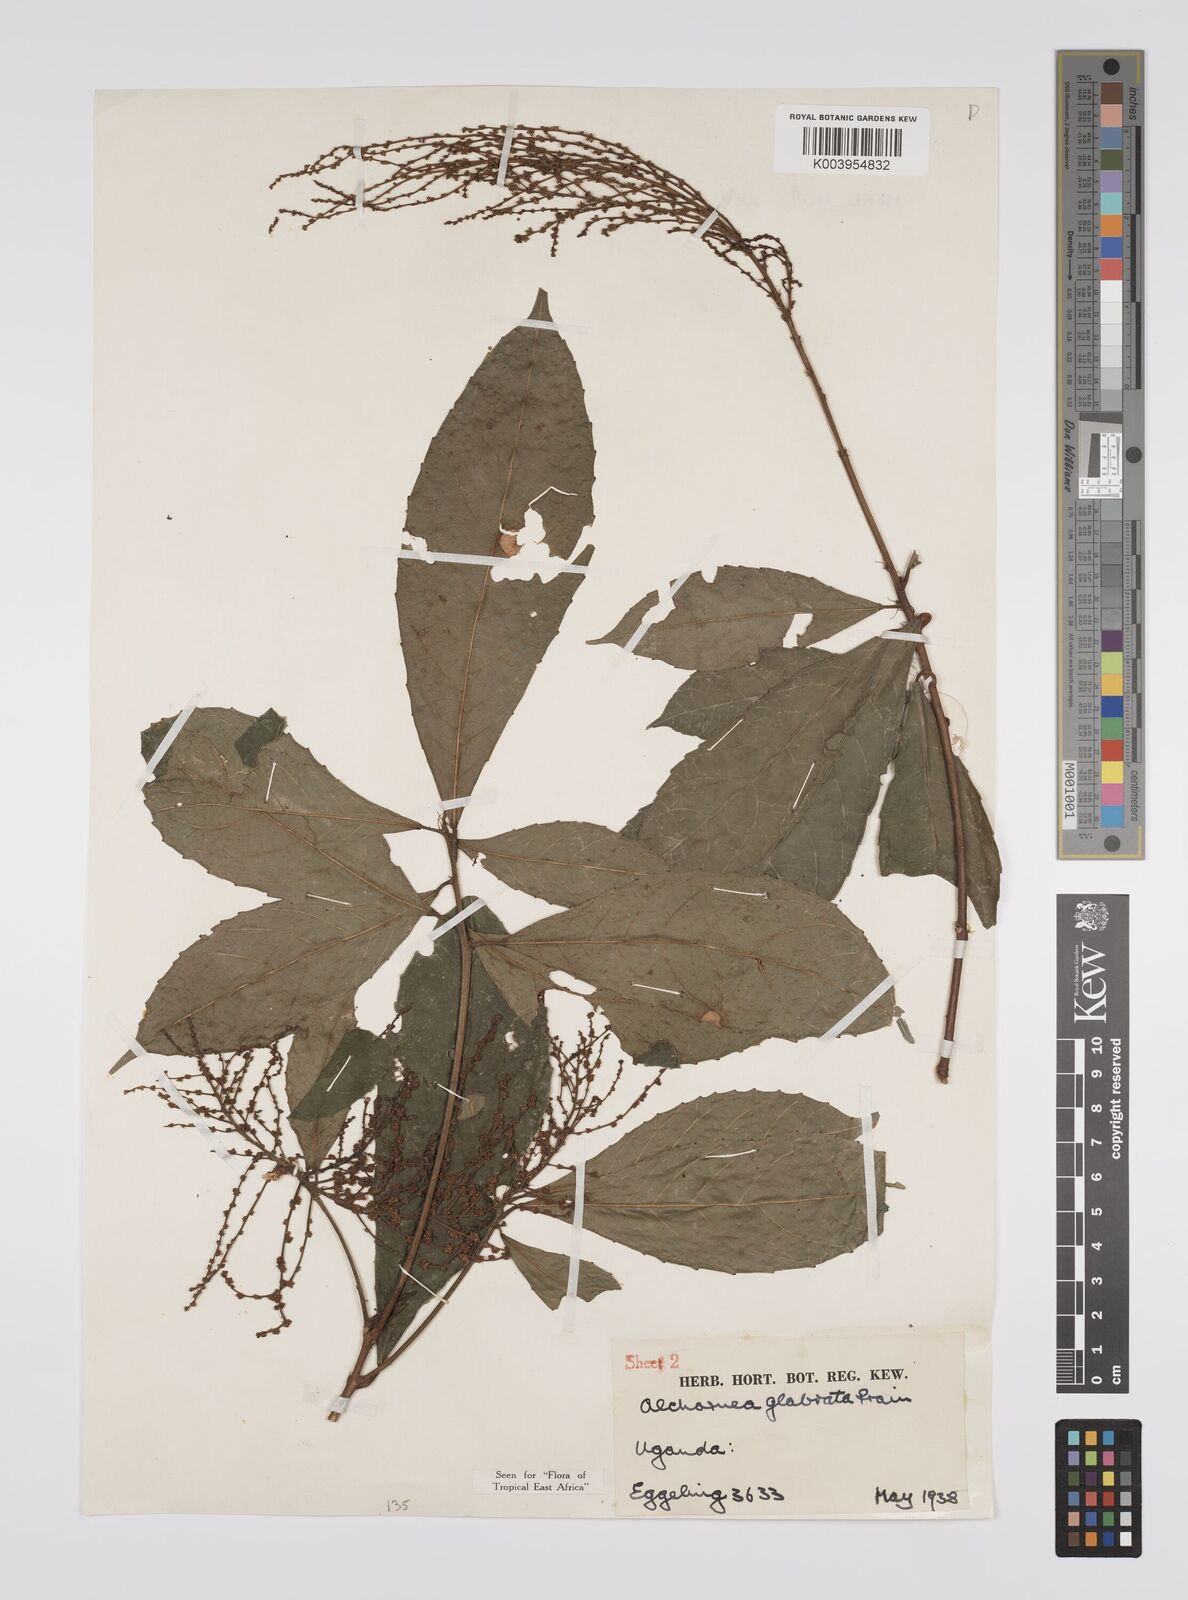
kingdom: Plantae
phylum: Tracheophyta
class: Magnoliopsida
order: Malpighiales
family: Euphorbiaceae
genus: Alchornea
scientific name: Alchornea hirtella
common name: Forest bead-string
